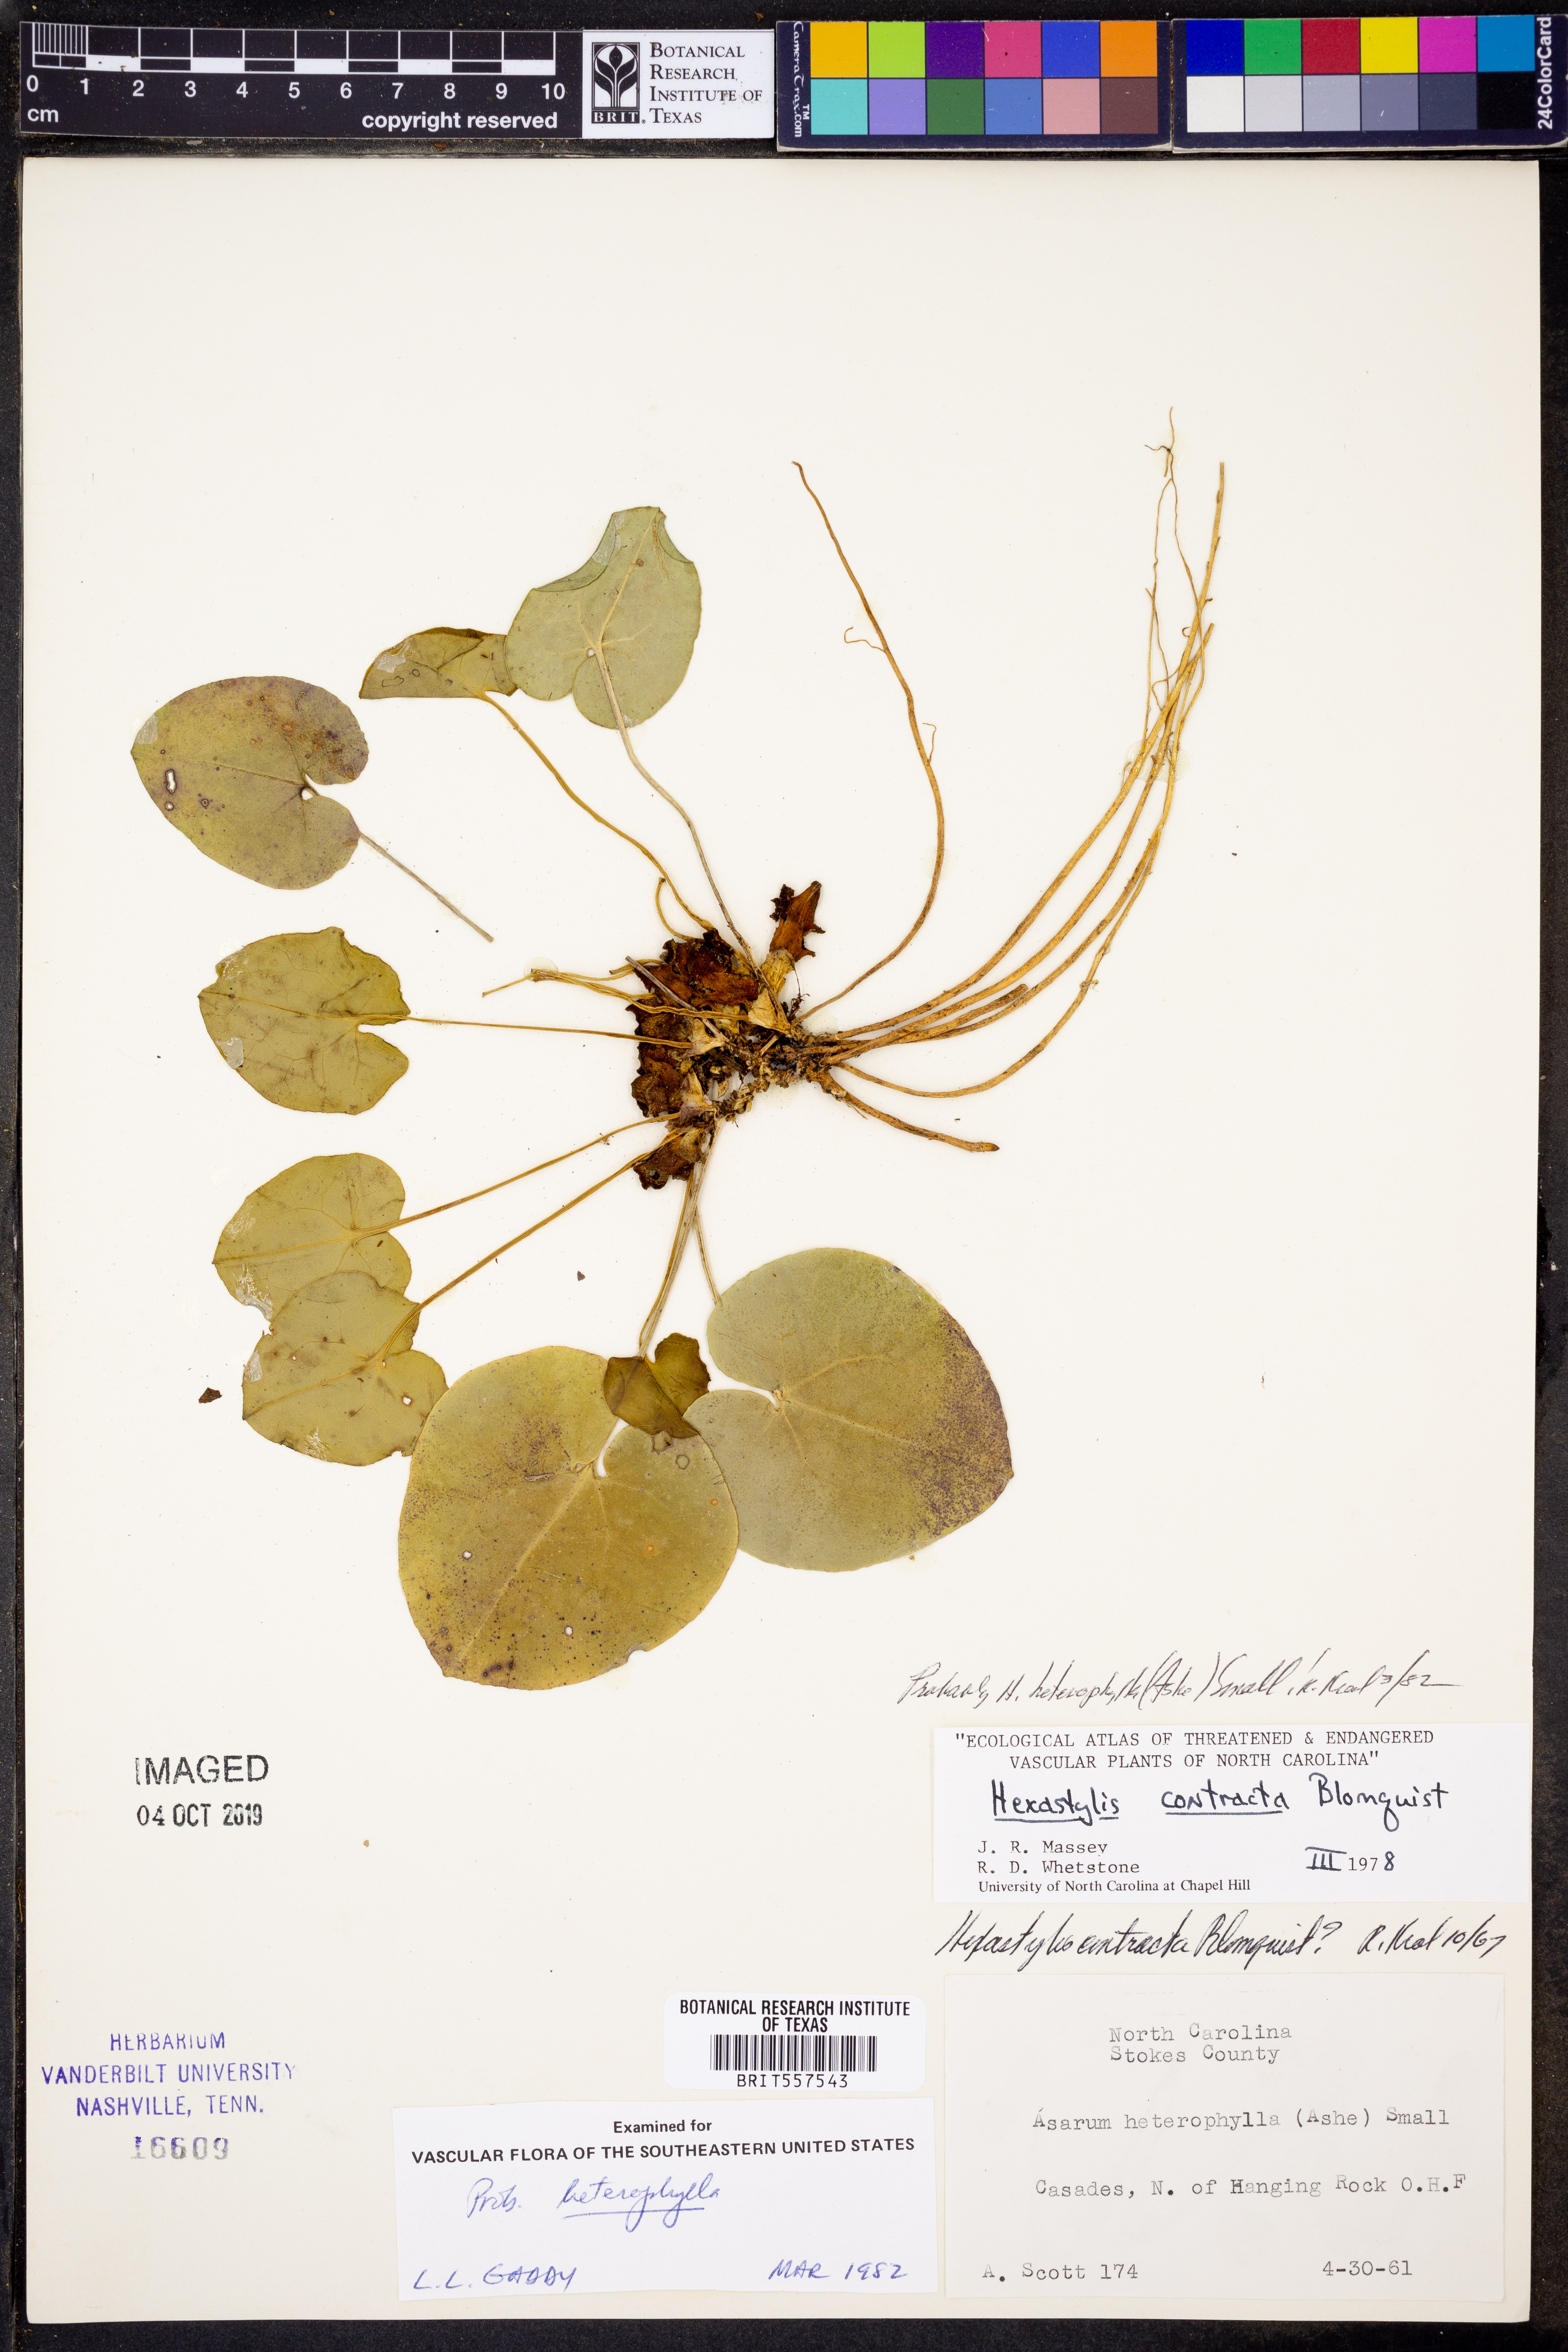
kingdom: Plantae
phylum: Tracheophyta
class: Magnoliopsida
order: Piperales
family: Aristolochiaceae
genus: Hexastylis
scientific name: Hexastylis heterophylla
